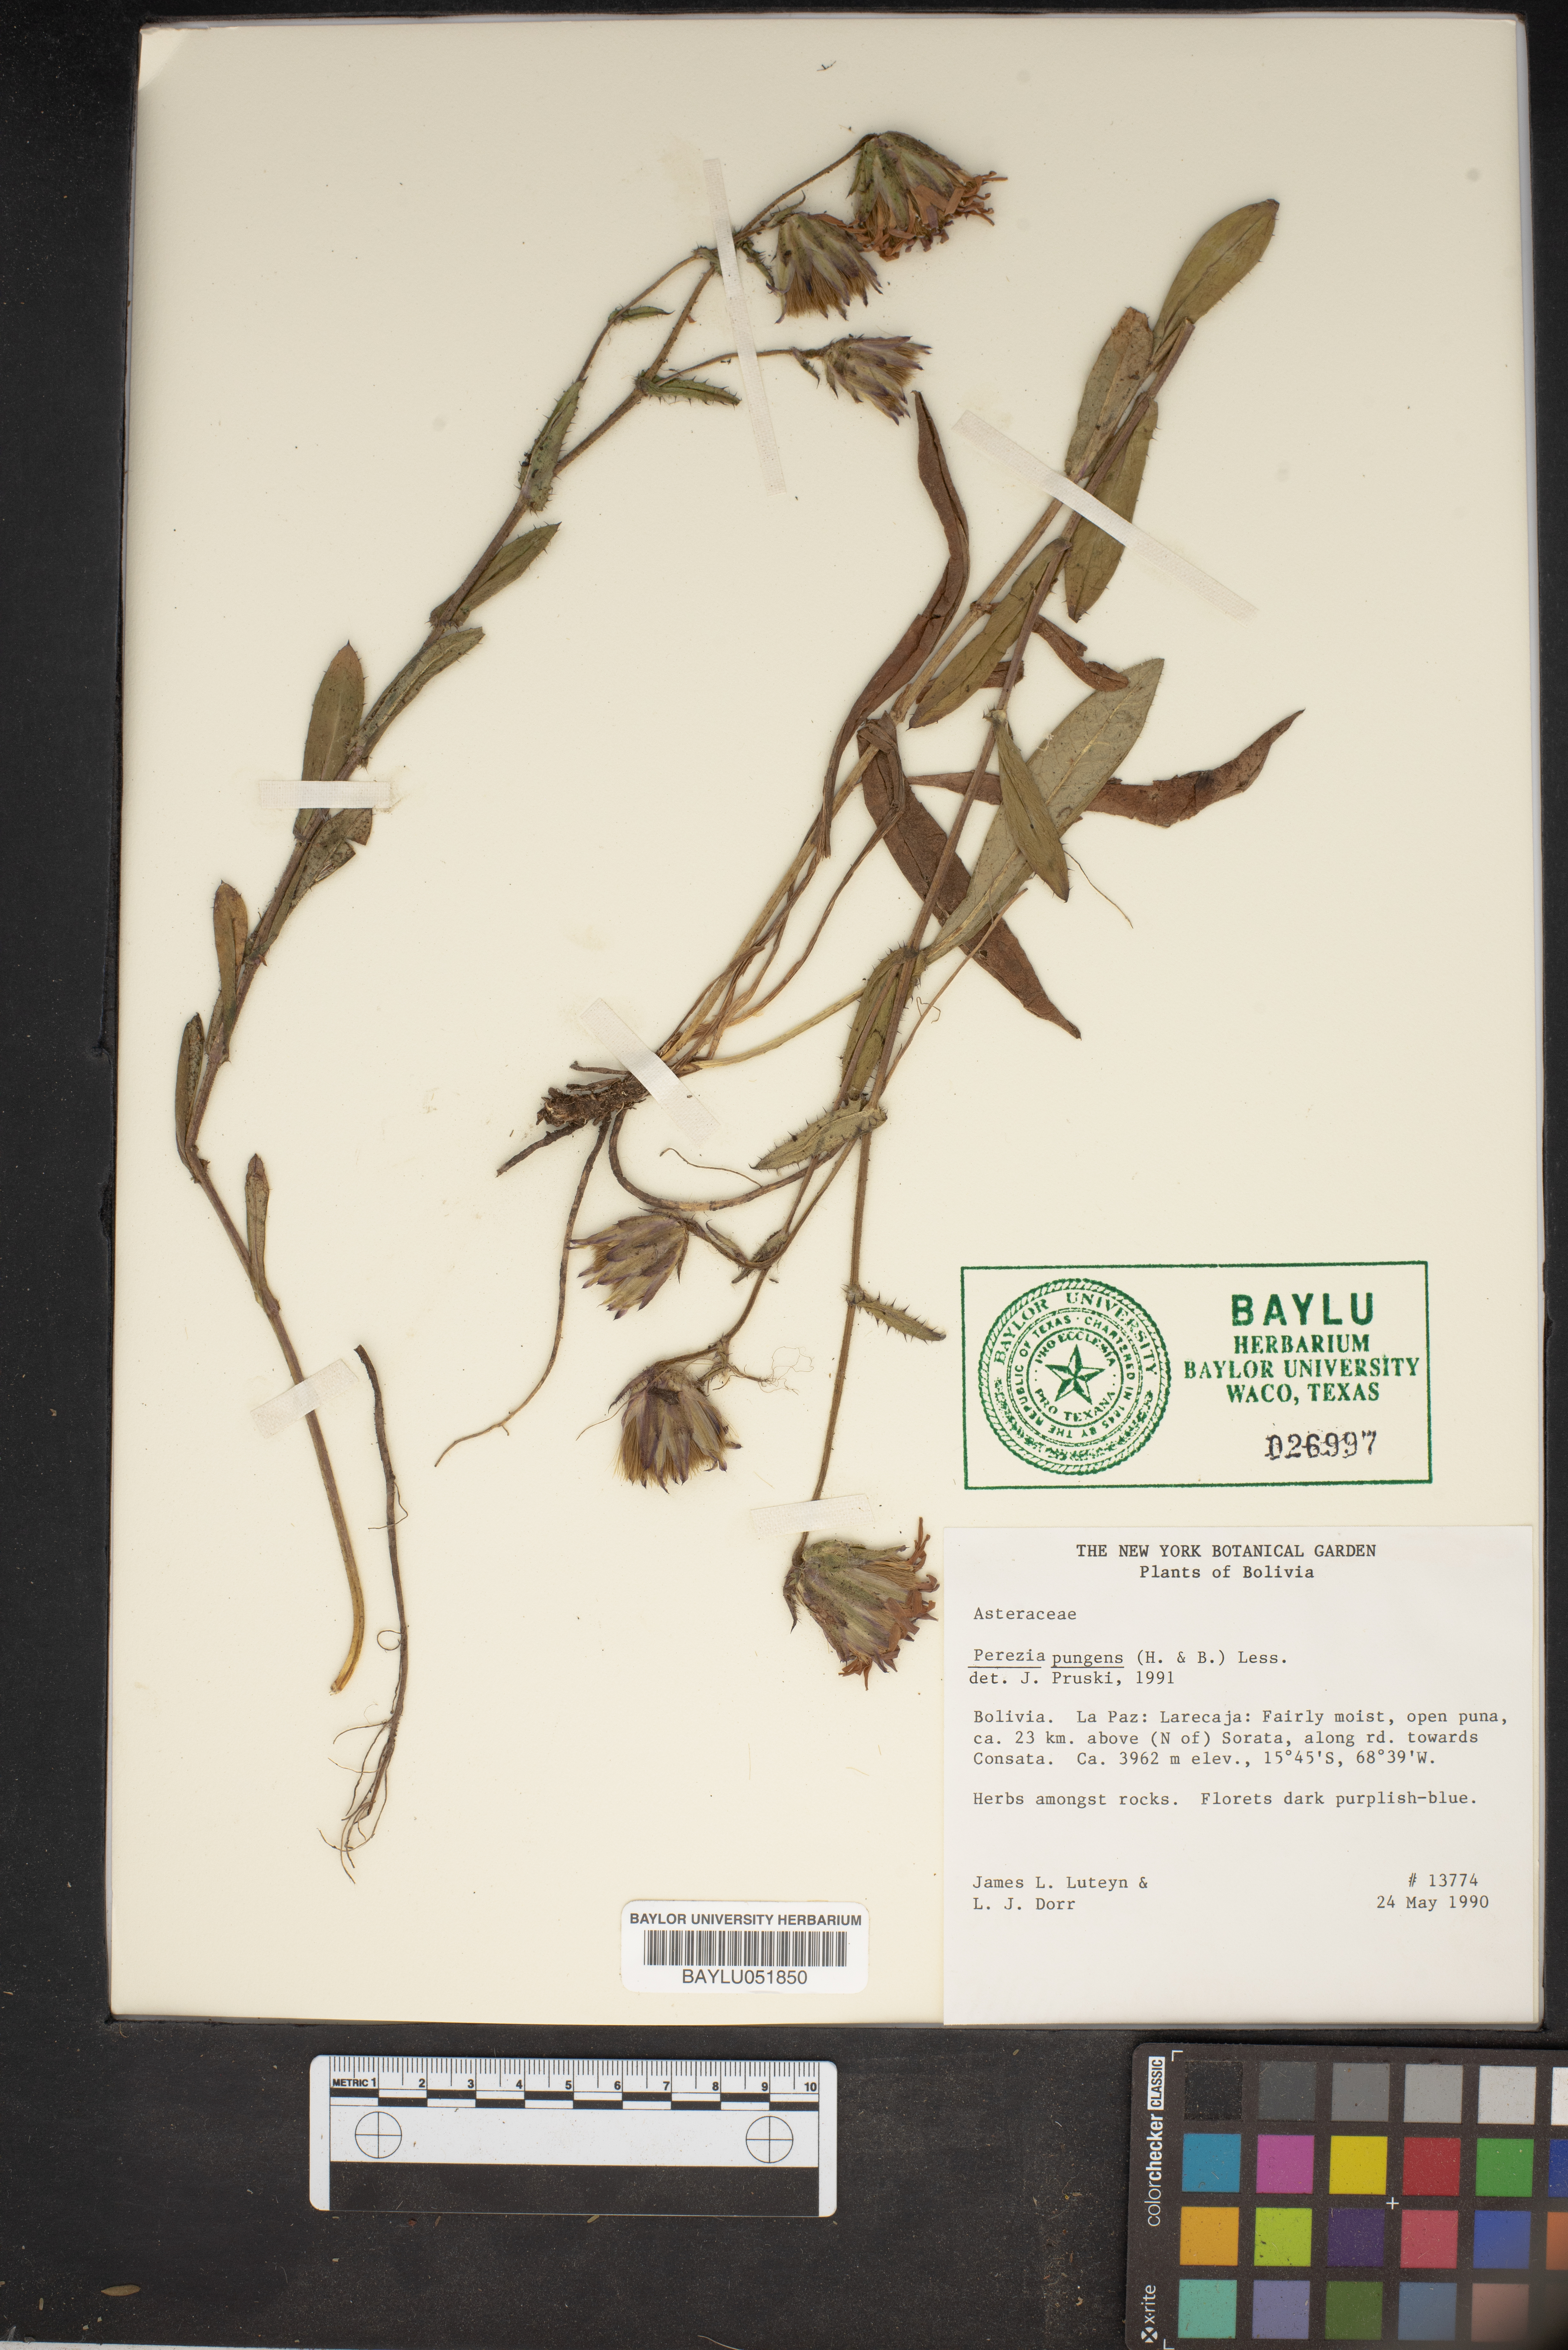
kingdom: Plantae
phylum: Tracheophyta
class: Magnoliopsida
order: Asterales
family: Asteraceae
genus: Perezia
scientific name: Perezia pungens
